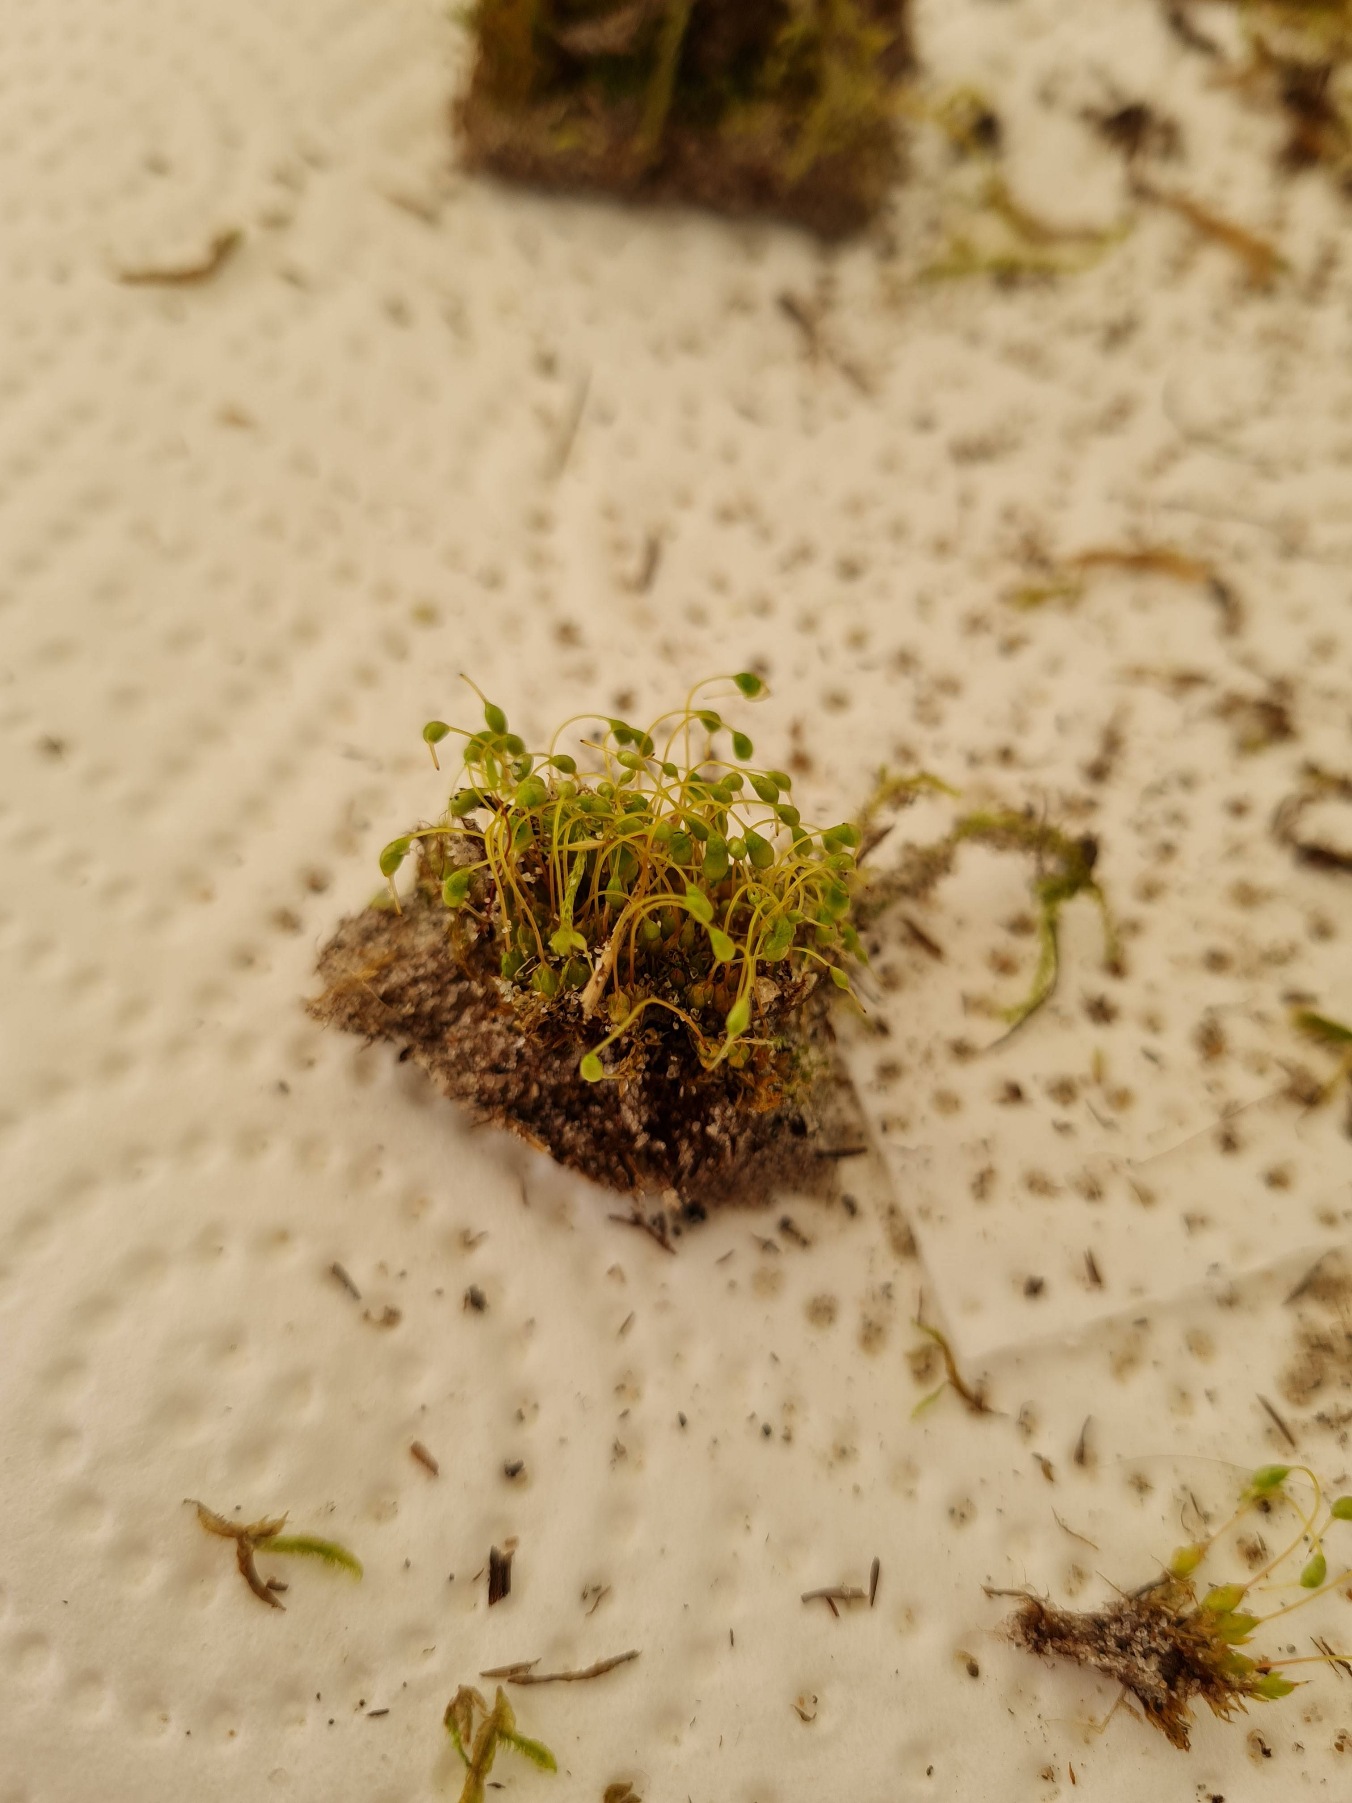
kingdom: Plantae
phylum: Bryophyta
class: Bryopsida
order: Funariales
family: Funariaceae
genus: Funaria
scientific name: Funaria hygrometrica
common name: Almindelig snobørste
